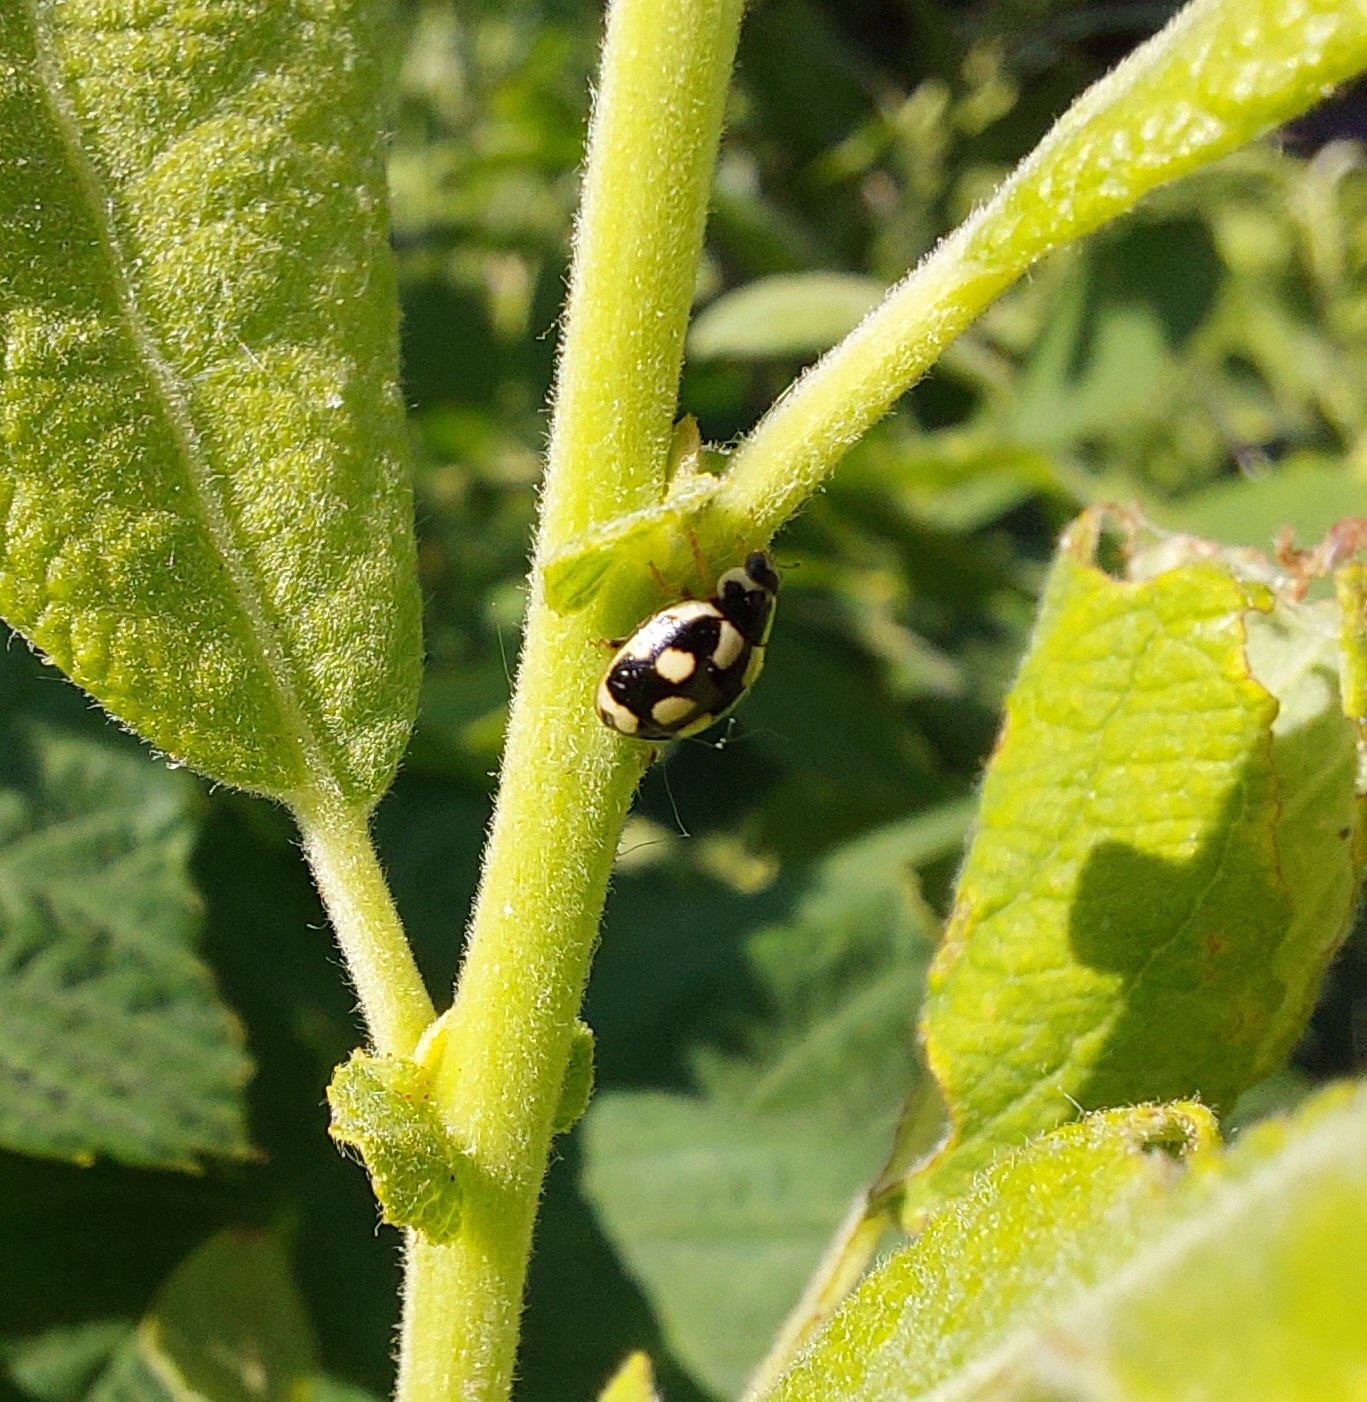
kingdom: Animalia
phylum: Arthropoda
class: Insecta
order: Coleoptera
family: Coccinellidae
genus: Propylaea
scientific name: Propylaea quatuordecimpunctata
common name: Skakbræt
